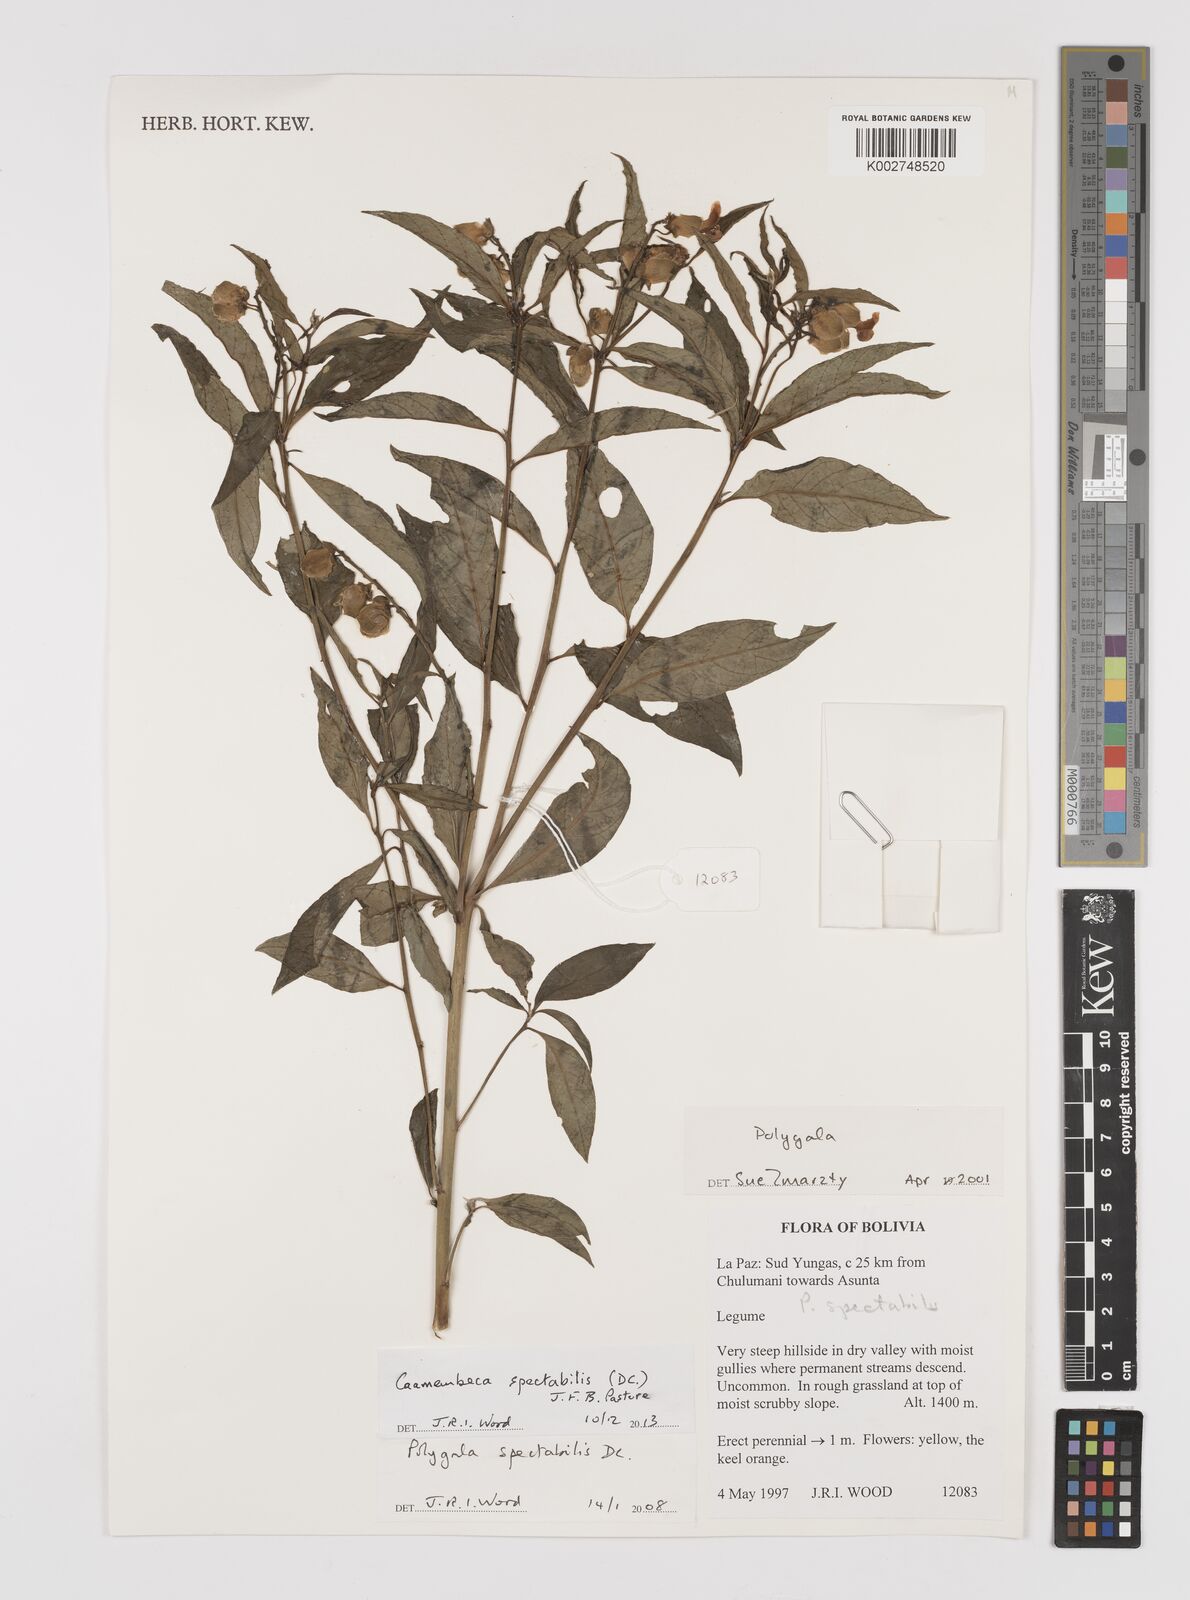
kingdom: Plantae
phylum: Tracheophyta
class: Magnoliopsida
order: Fabales
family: Polygalaceae
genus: Caamembeca
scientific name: Caamembeca spectabilis
